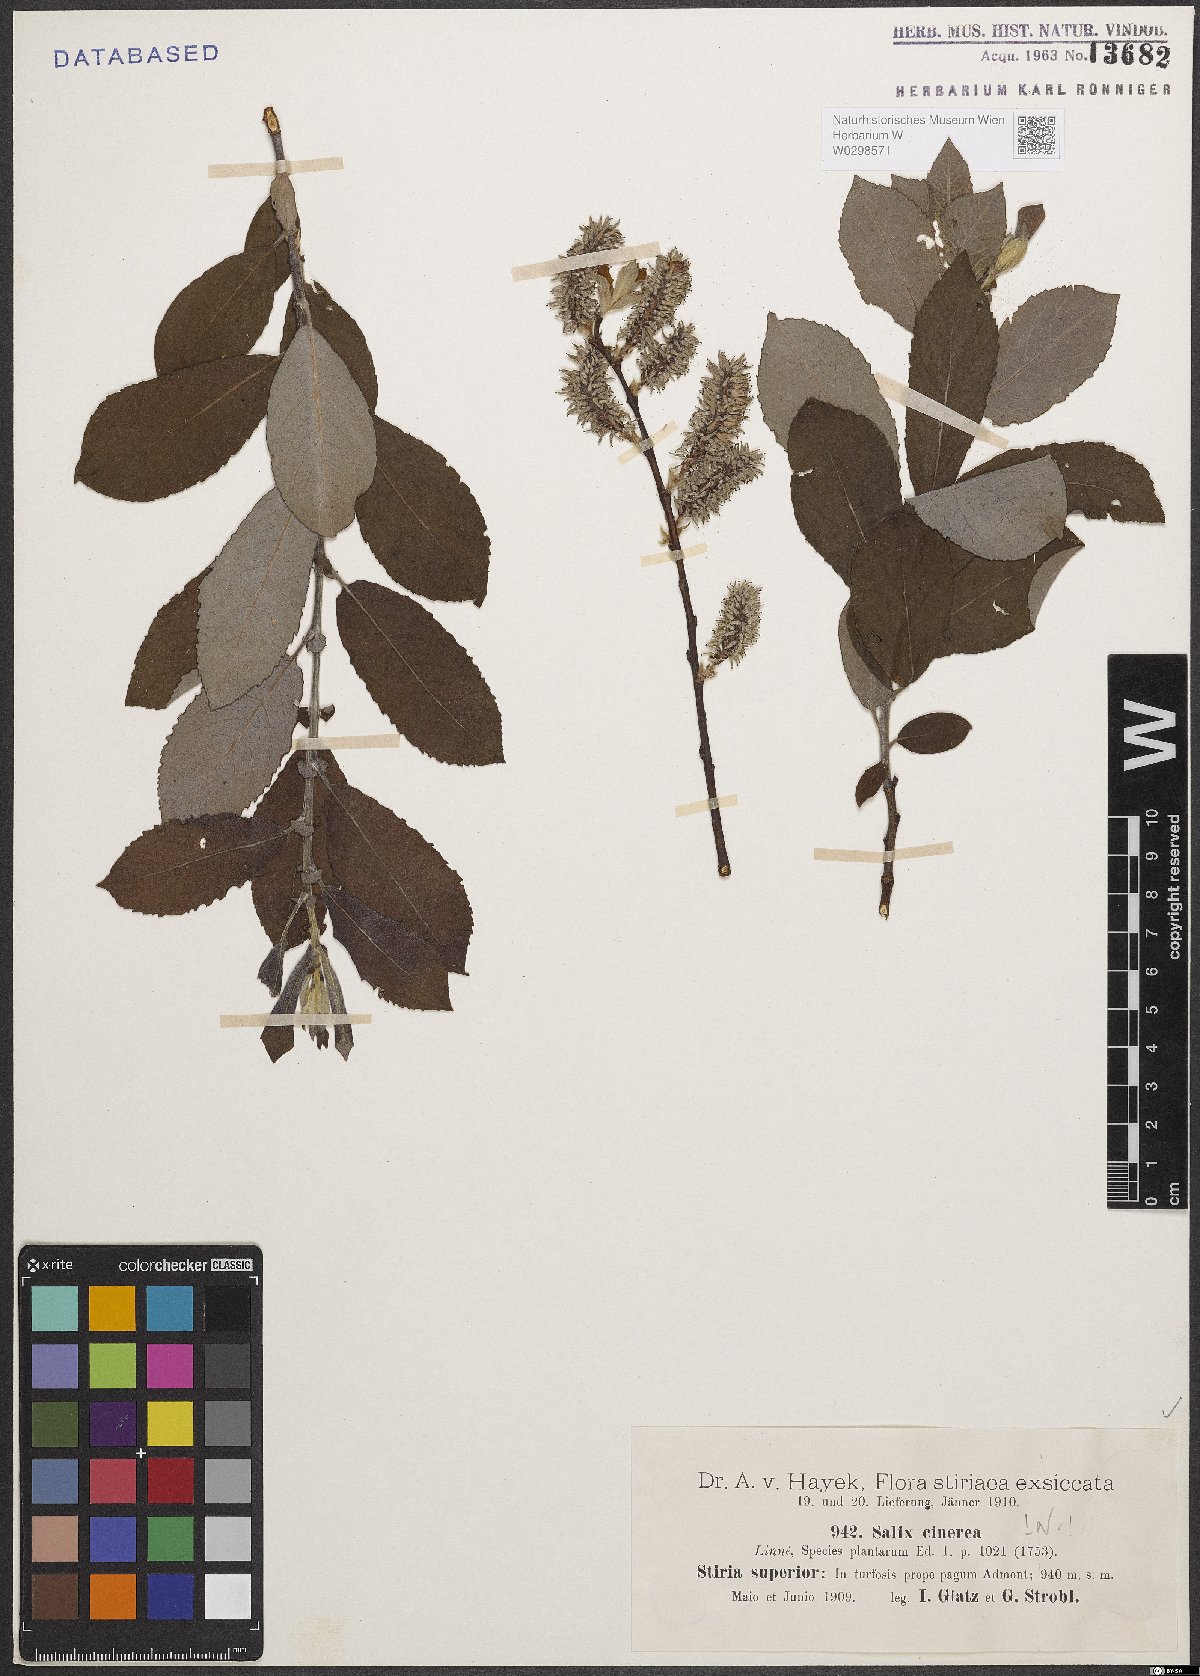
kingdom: Plantae
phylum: Tracheophyta
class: Magnoliopsida
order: Malpighiales
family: Salicaceae
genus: Salix
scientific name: Salix cinerea
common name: Common sallow
